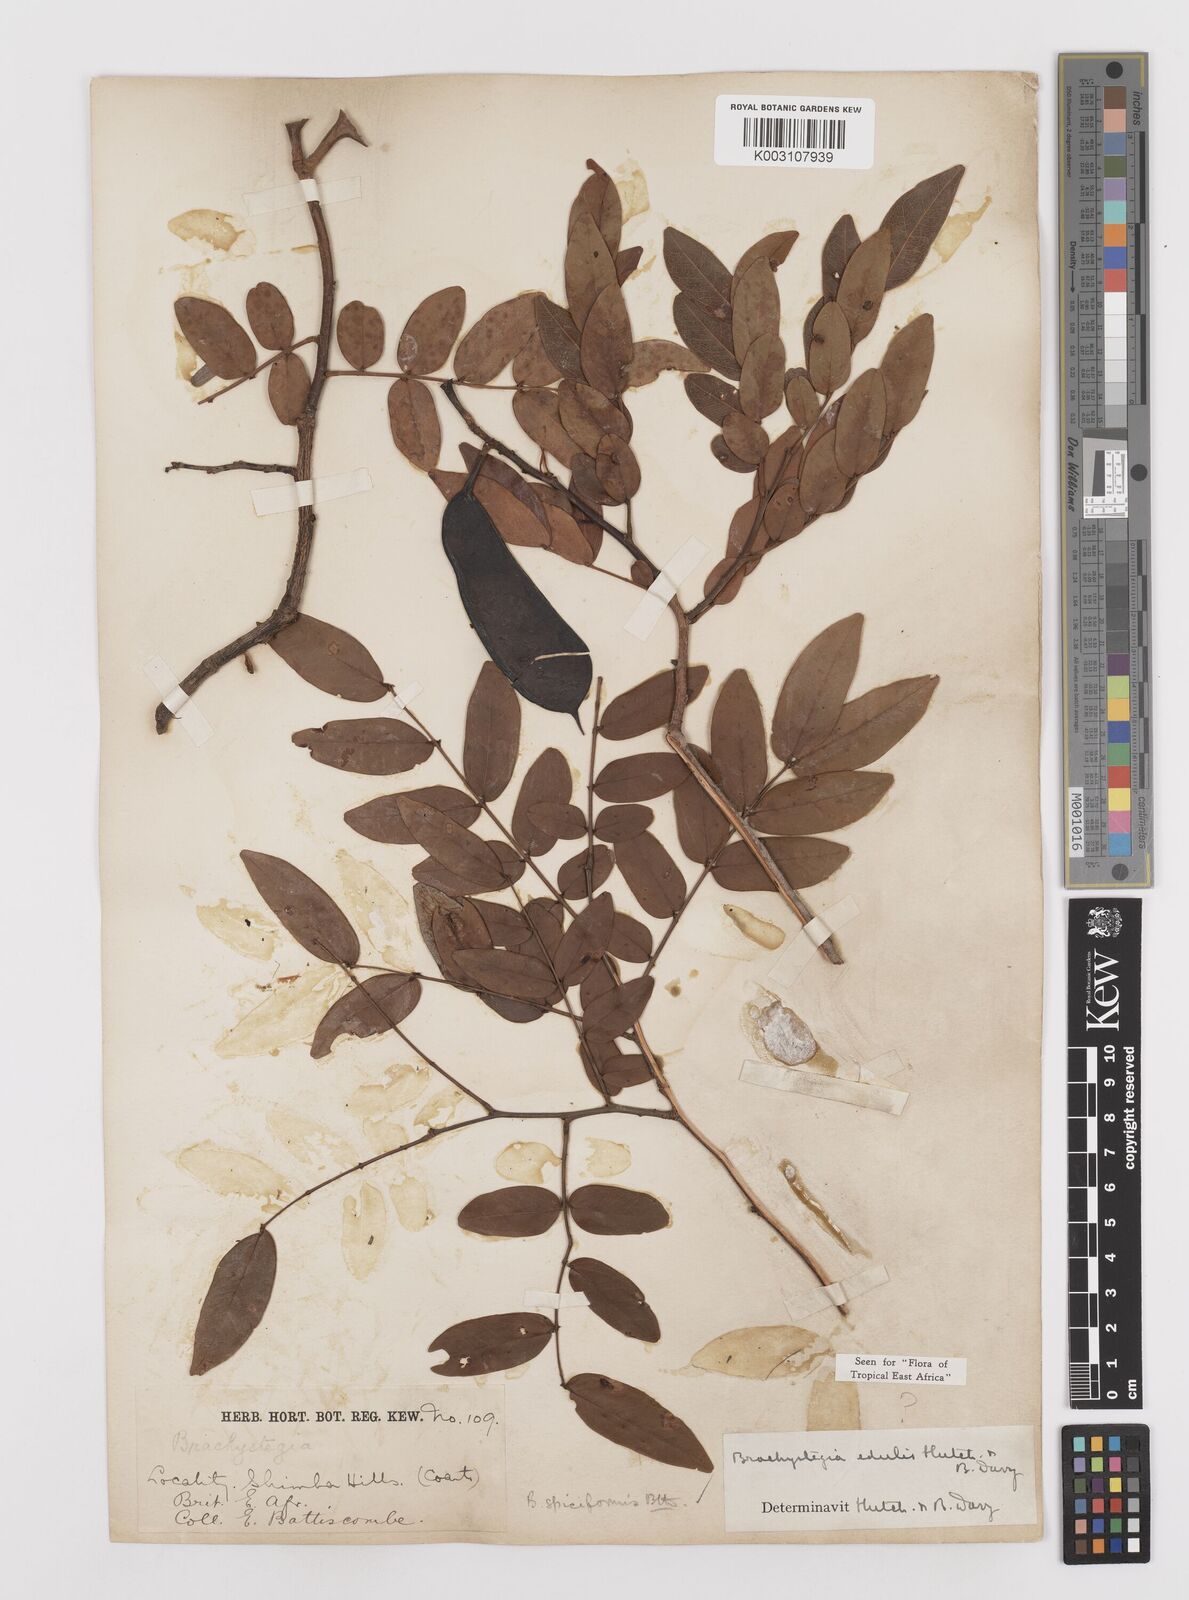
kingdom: Plantae
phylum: Tracheophyta
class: Magnoliopsida
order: Fabales
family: Fabaceae
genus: Brachystegia
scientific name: Brachystegia spiciformis
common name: Zebrawood
